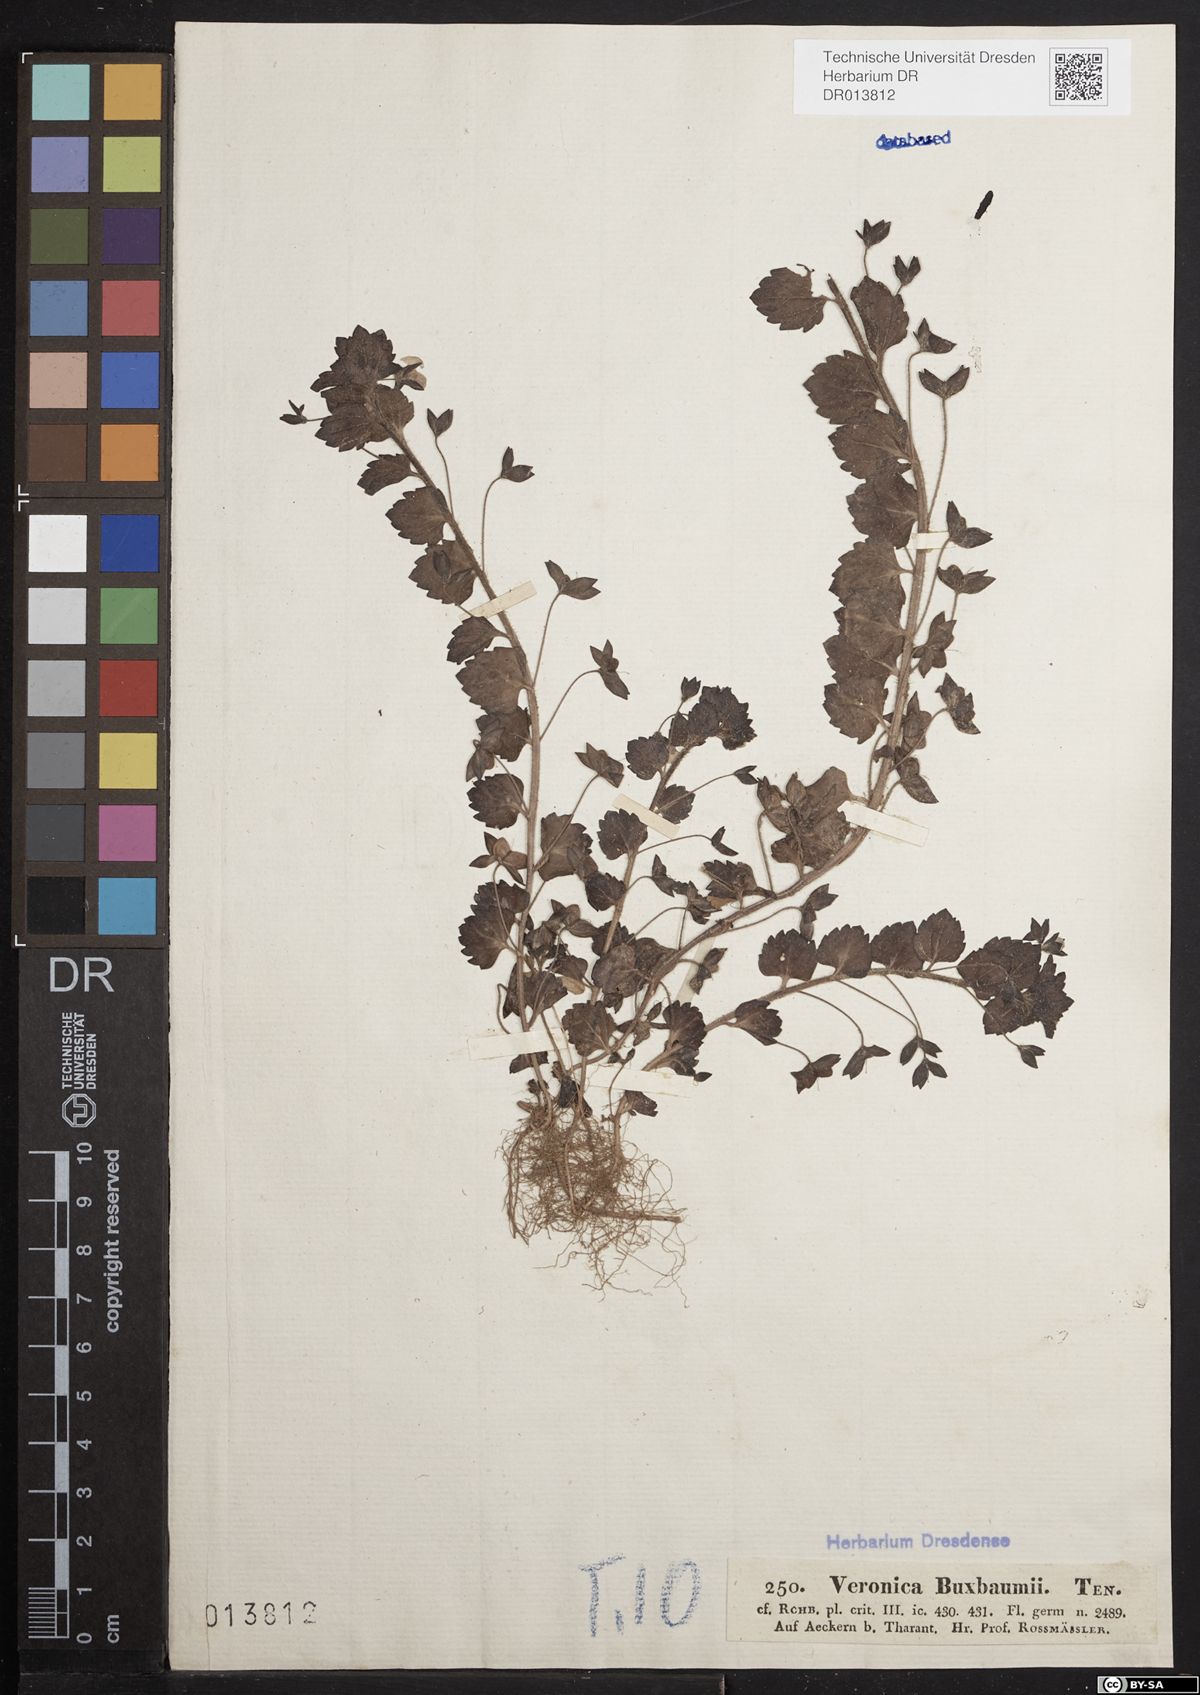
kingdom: Plantae
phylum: Tracheophyta
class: Magnoliopsida
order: Lamiales
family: Plantaginaceae
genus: Veronica
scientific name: Veronica persica
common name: Common field-speedwell
